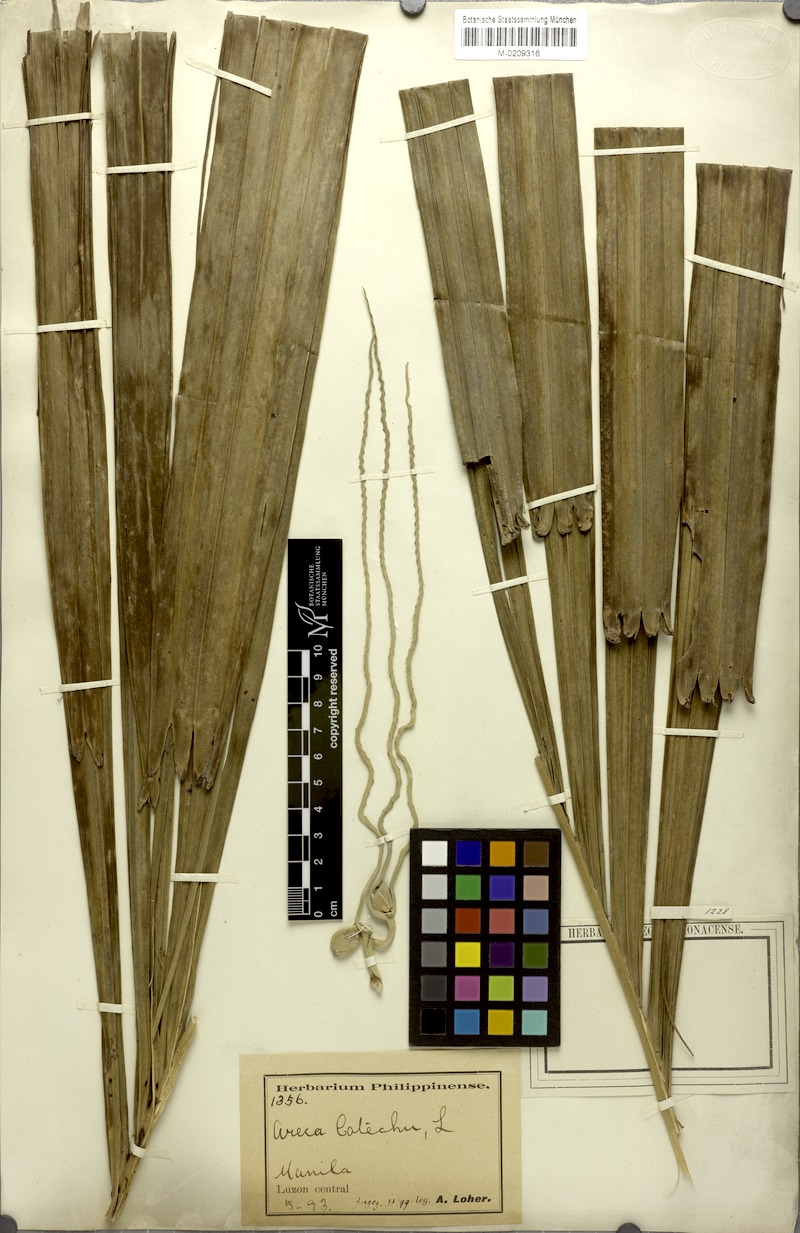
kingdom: Plantae
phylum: Tracheophyta
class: Liliopsida
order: Arecales
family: Arecaceae
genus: Areca
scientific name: Areca catechu
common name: Indian-nut
